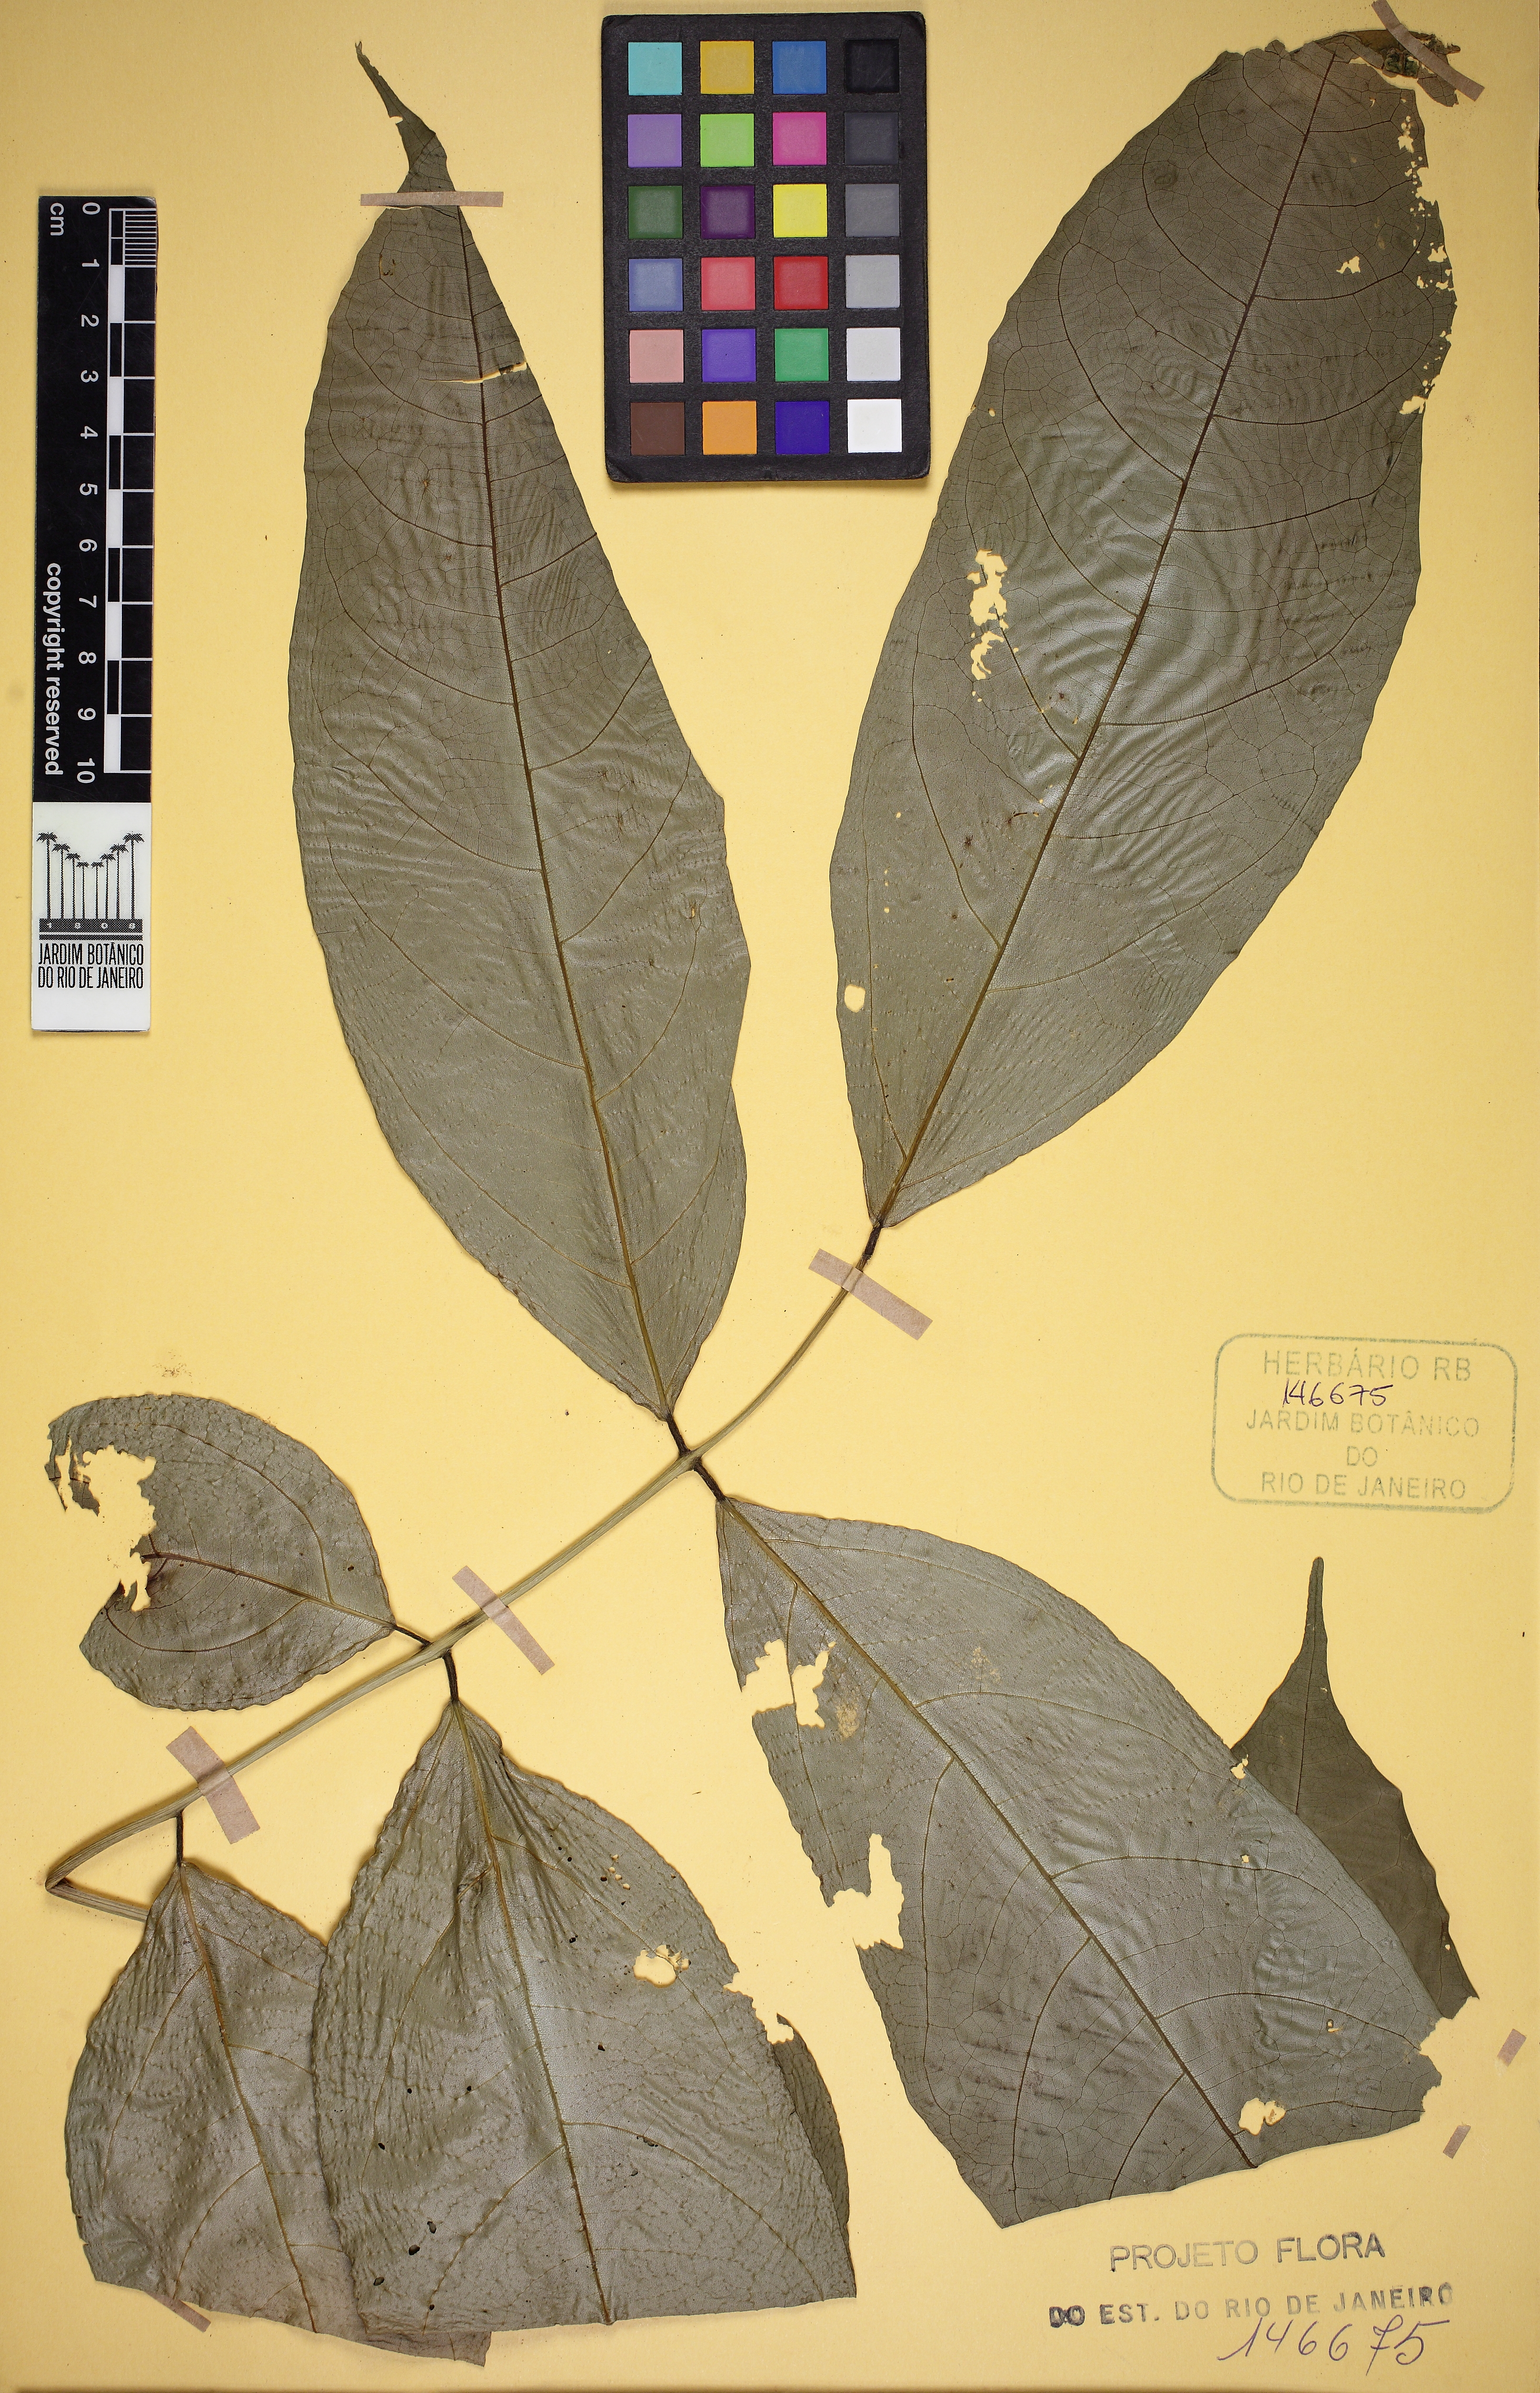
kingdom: Plantae
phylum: Tracheophyta
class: Magnoliopsida
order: Fabales
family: Fabaceae
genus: Dahlstedtia
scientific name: Dahlstedtia pinnata
